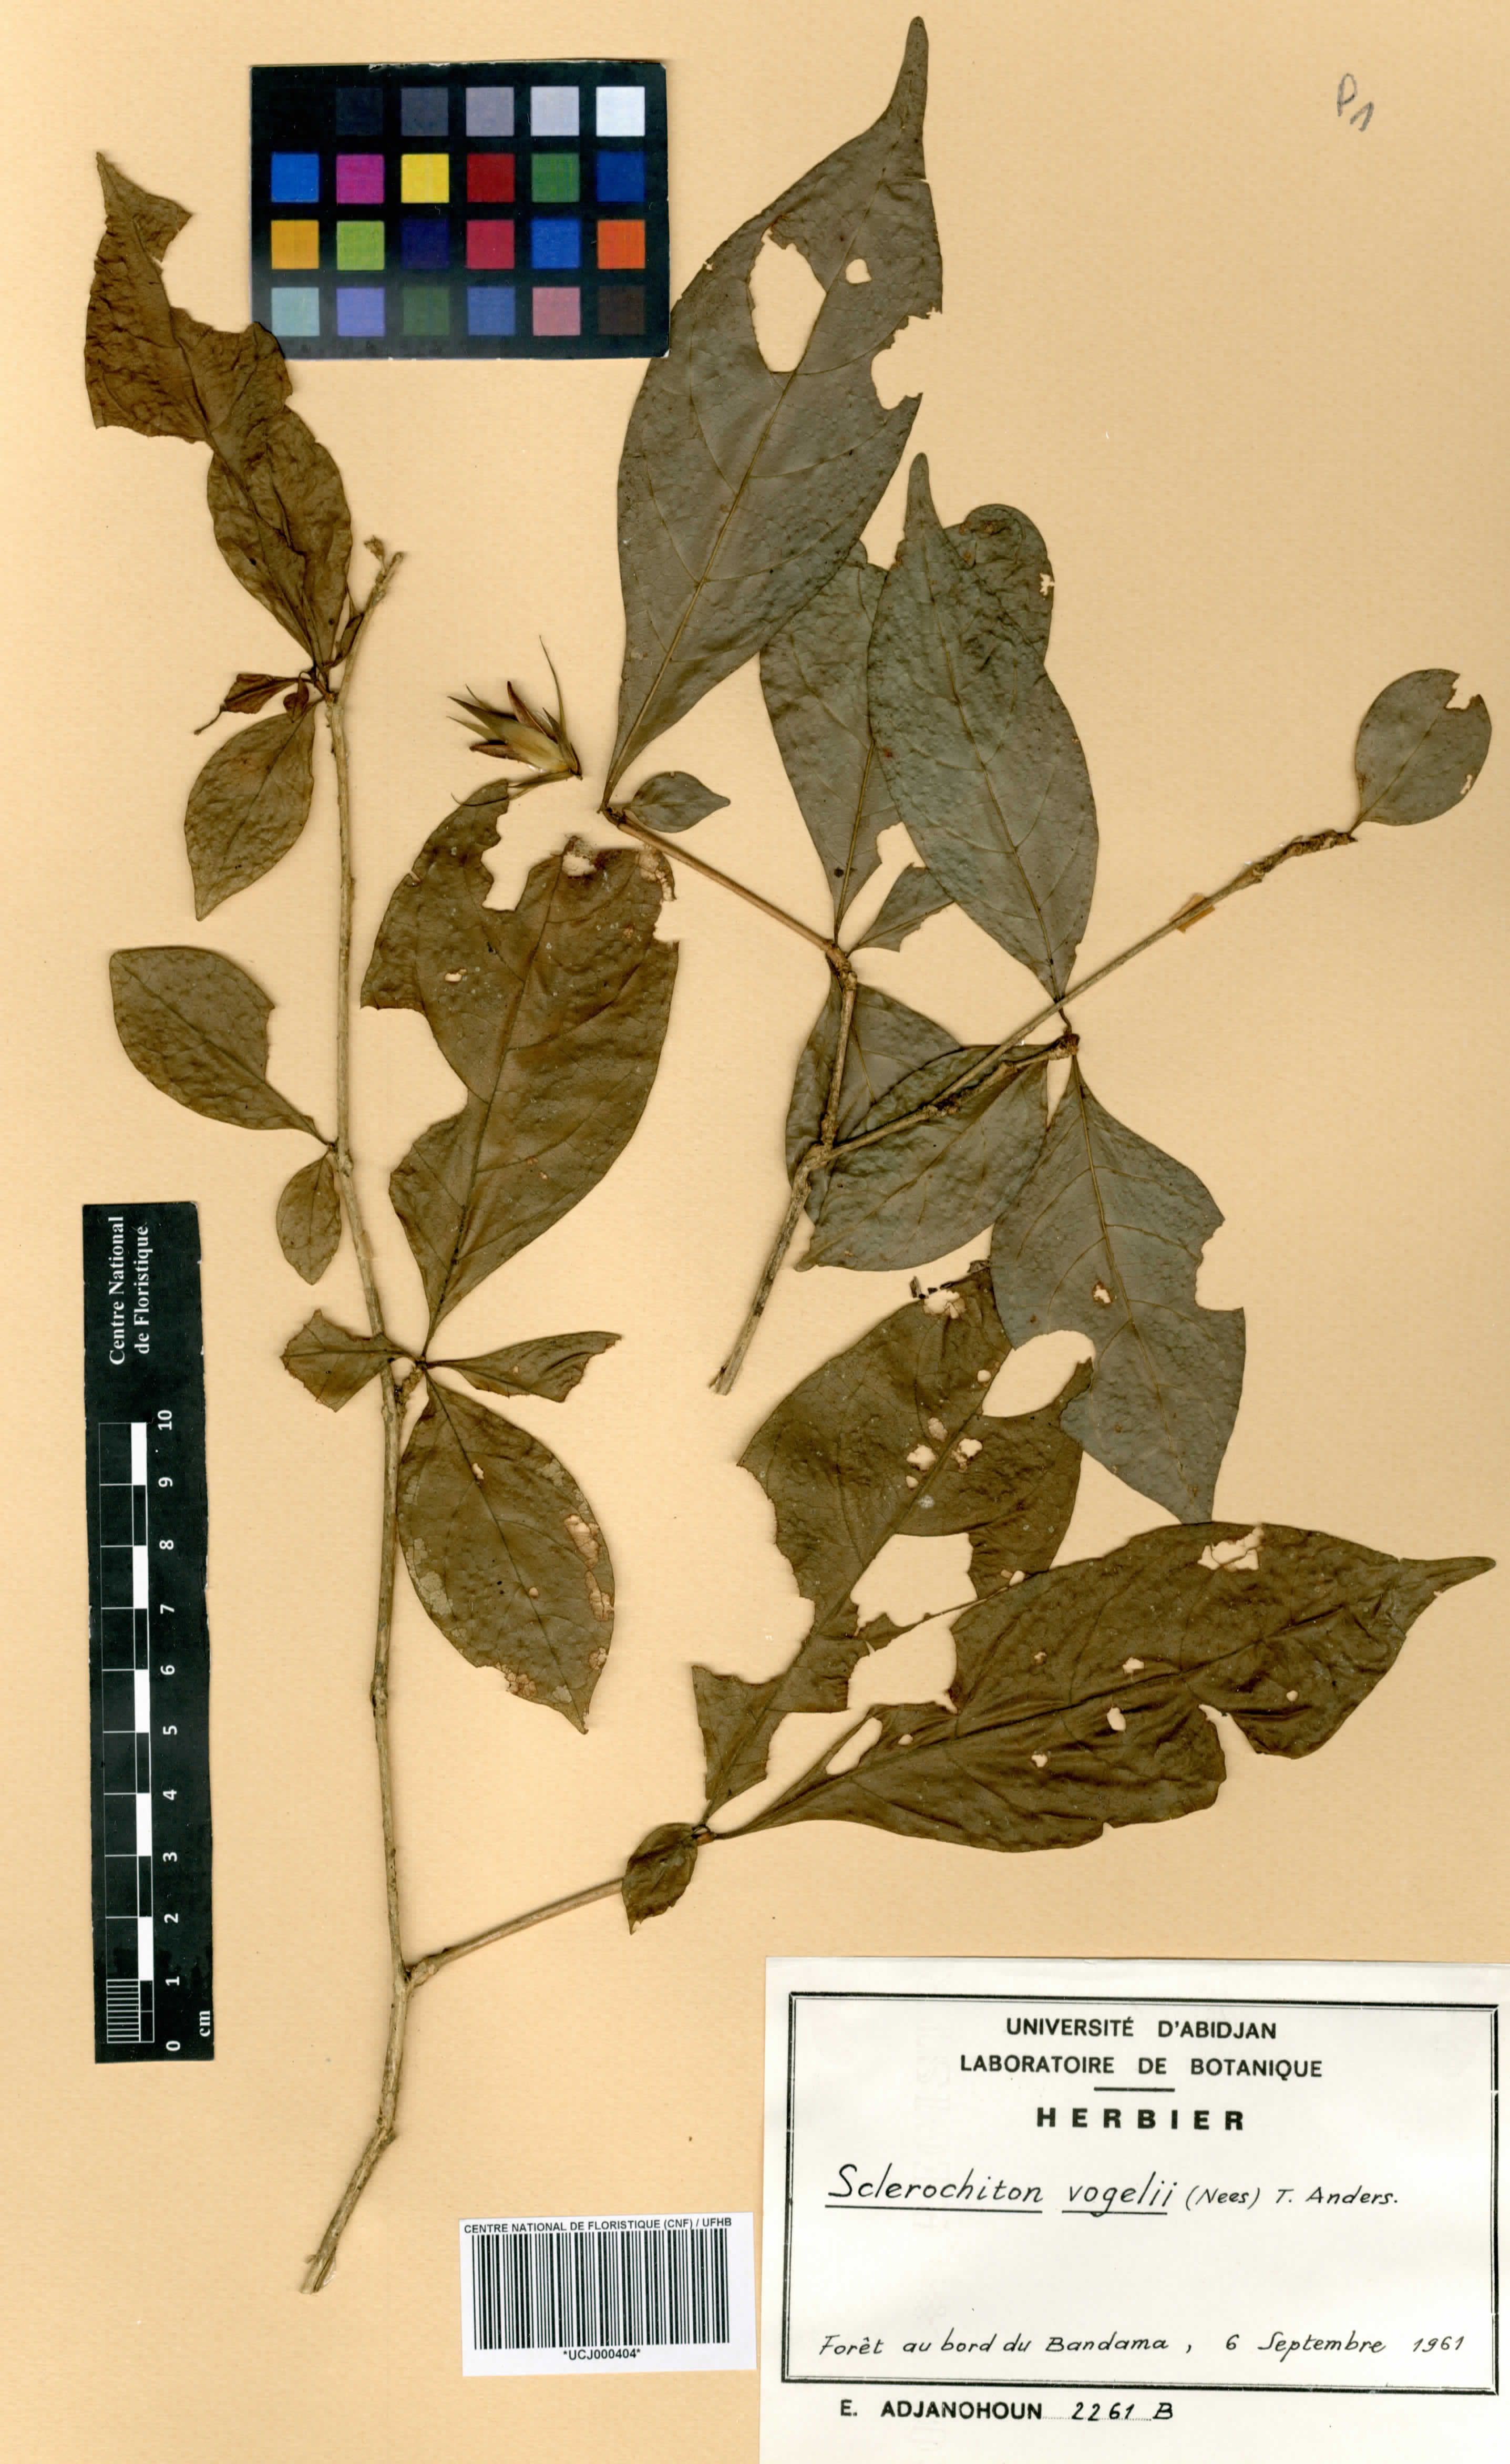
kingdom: Plantae
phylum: Tracheophyta
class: Magnoliopsida
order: Lamiales
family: Acanthaceae
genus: Sclerochiton
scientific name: Sclerochiton vogelii
